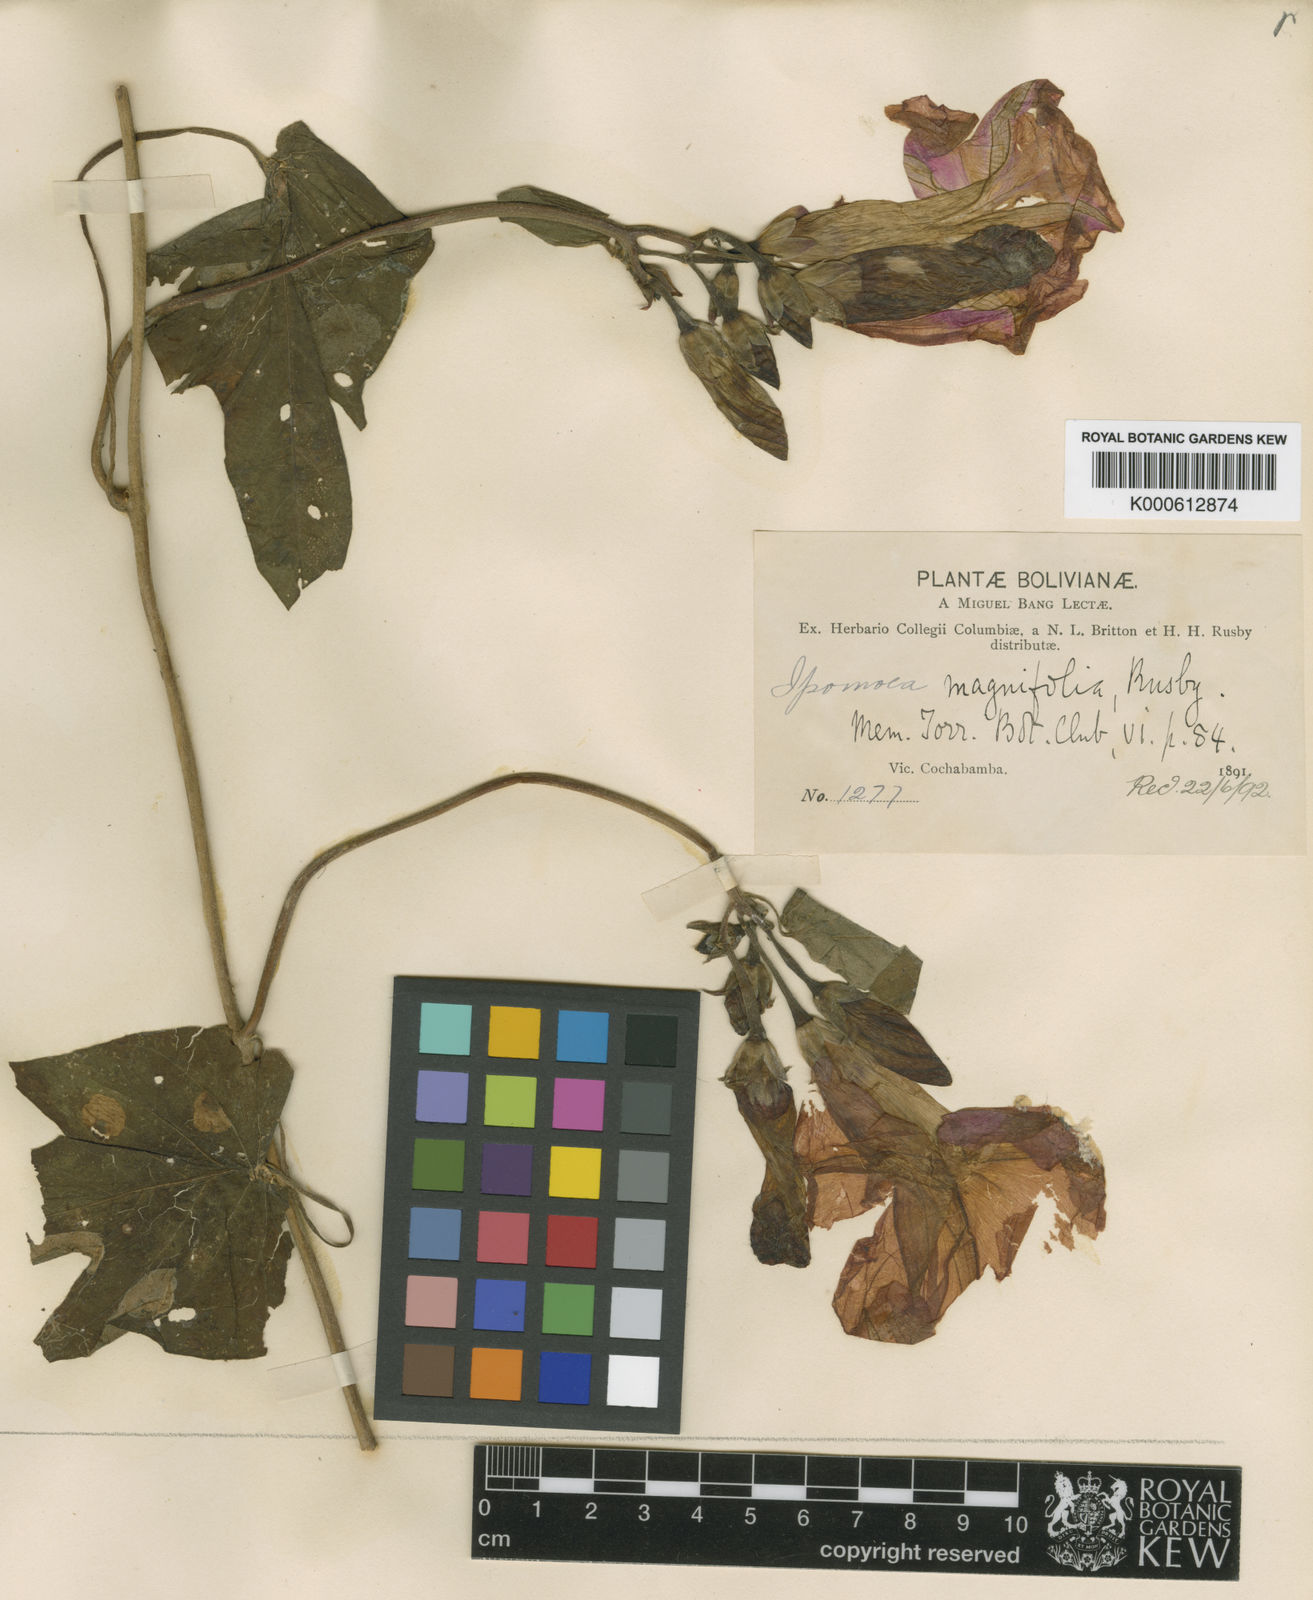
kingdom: Plantae
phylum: Tracheophyta
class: Magnoliopsida
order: Solanales
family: Convolvulaceae
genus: Ipomoea
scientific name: Ipomoea magnifolia
